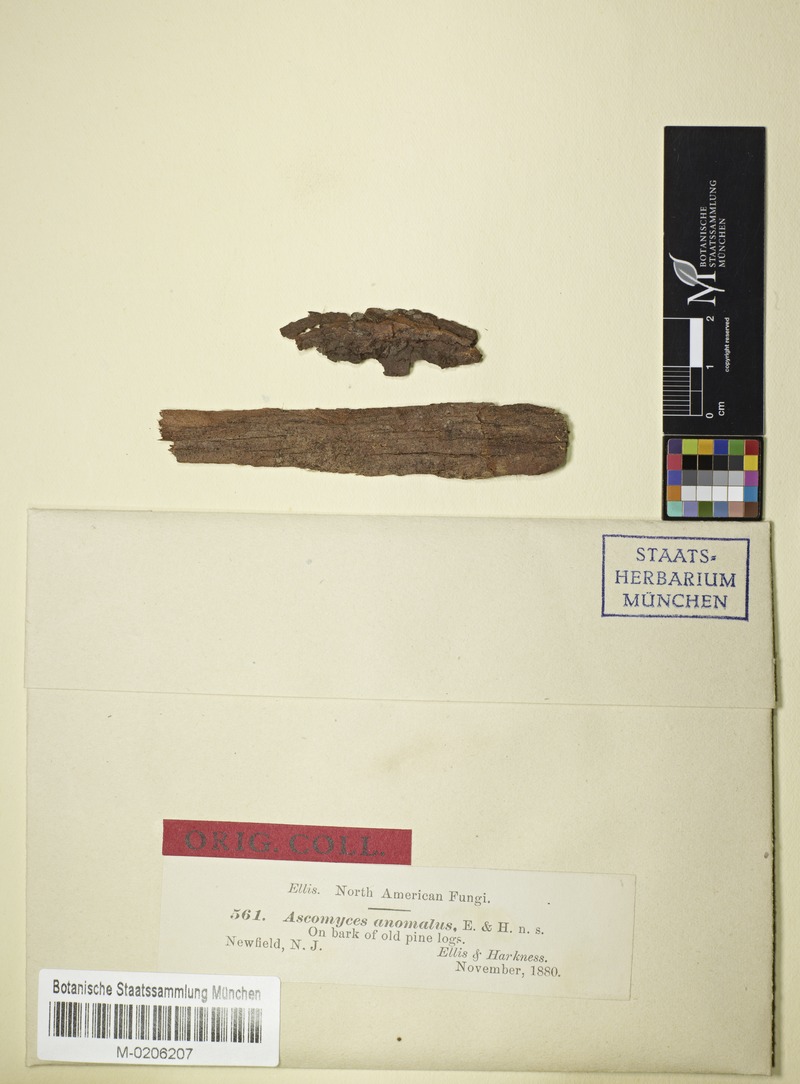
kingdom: Fungi
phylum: Ascomycota
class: Leotiomycetes
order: Helotiales
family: Ascocorticiaceae
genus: Ascocorticium
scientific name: Ascocorticium anomalum
